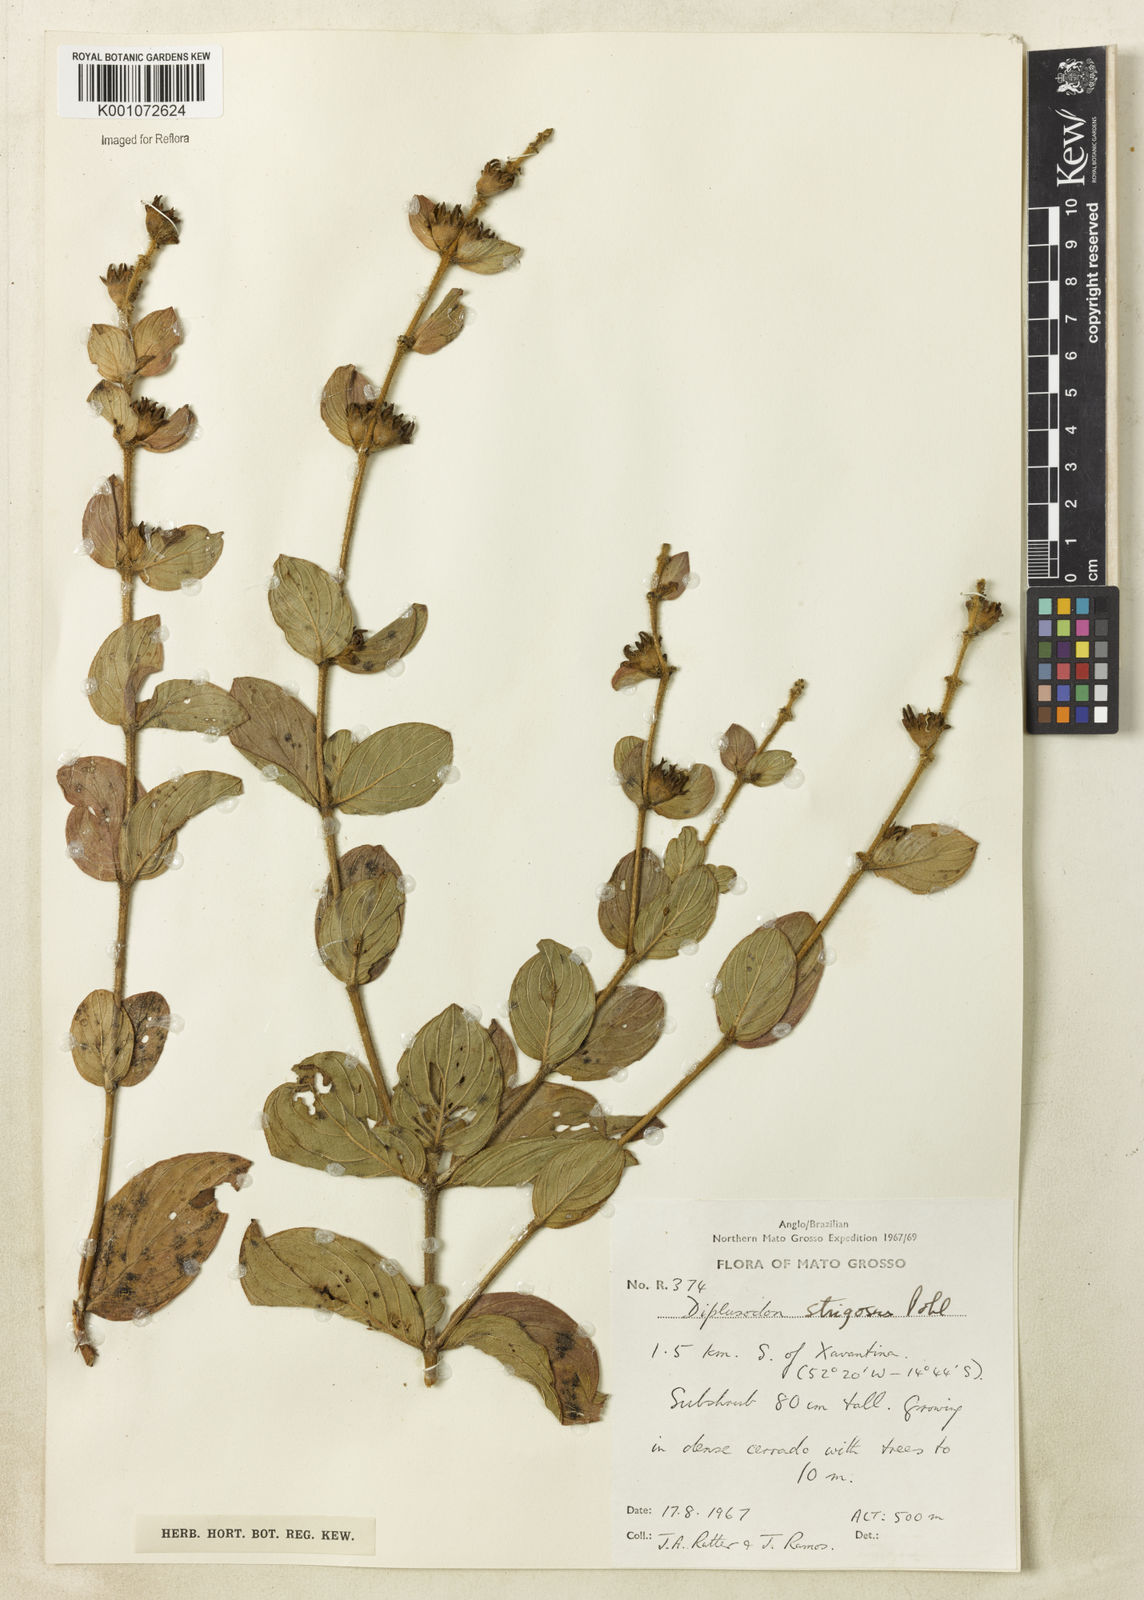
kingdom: Plantae
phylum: Tracheophyta
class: Magnoliopsida
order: Myrtales
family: Lythraceae
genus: Diplusodon
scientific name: Diplusodon strigosus
